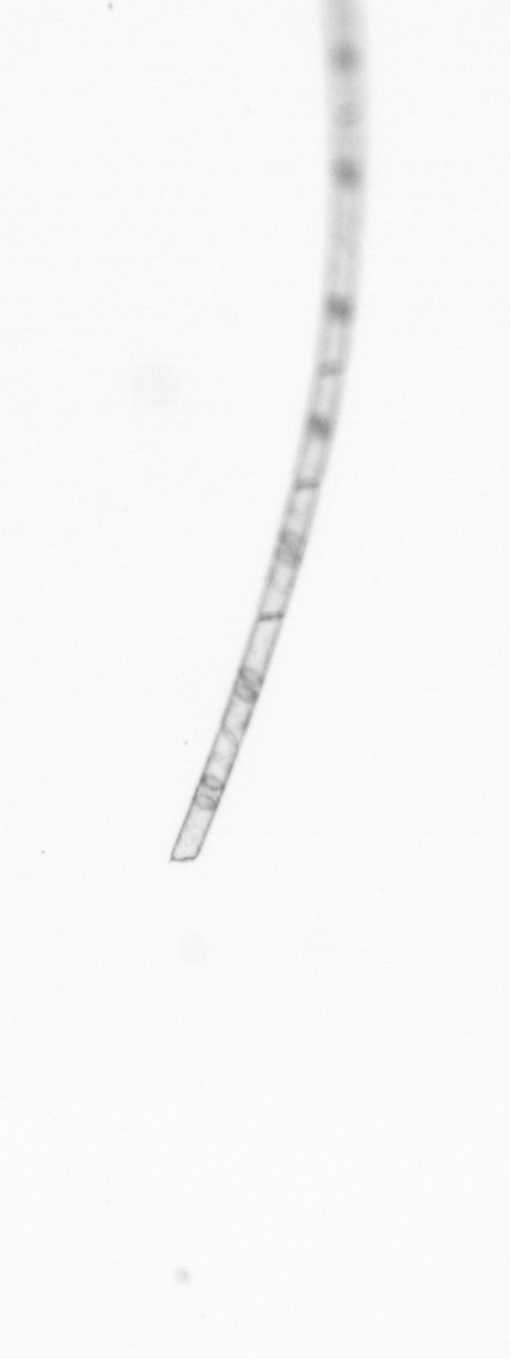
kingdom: Chromista
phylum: Ochrophyta
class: Bacillariophyceae
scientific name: Bacillariophyceae
